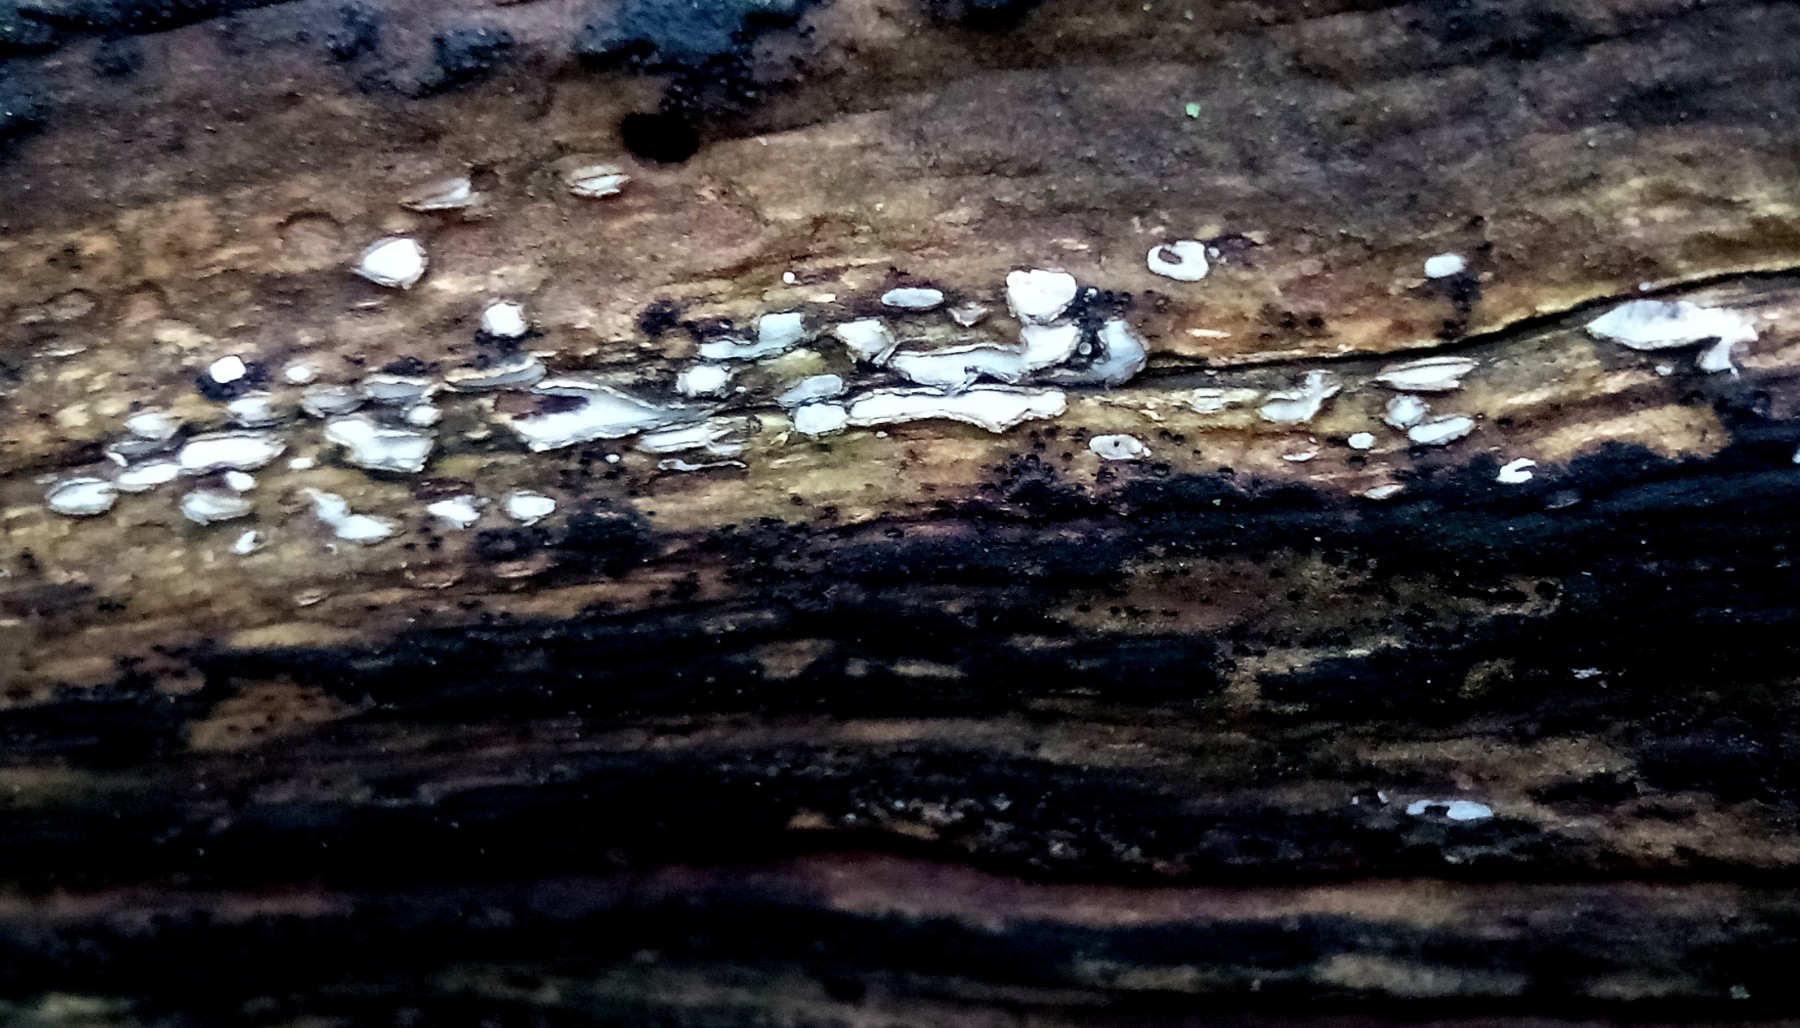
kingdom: Fungi
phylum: Ascomycota
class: Leotiomycetes
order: Chaetomellales
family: Marthamycetaceae
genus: Propolis
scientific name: Propolis farinosa
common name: almindelig vedsprængerskive
